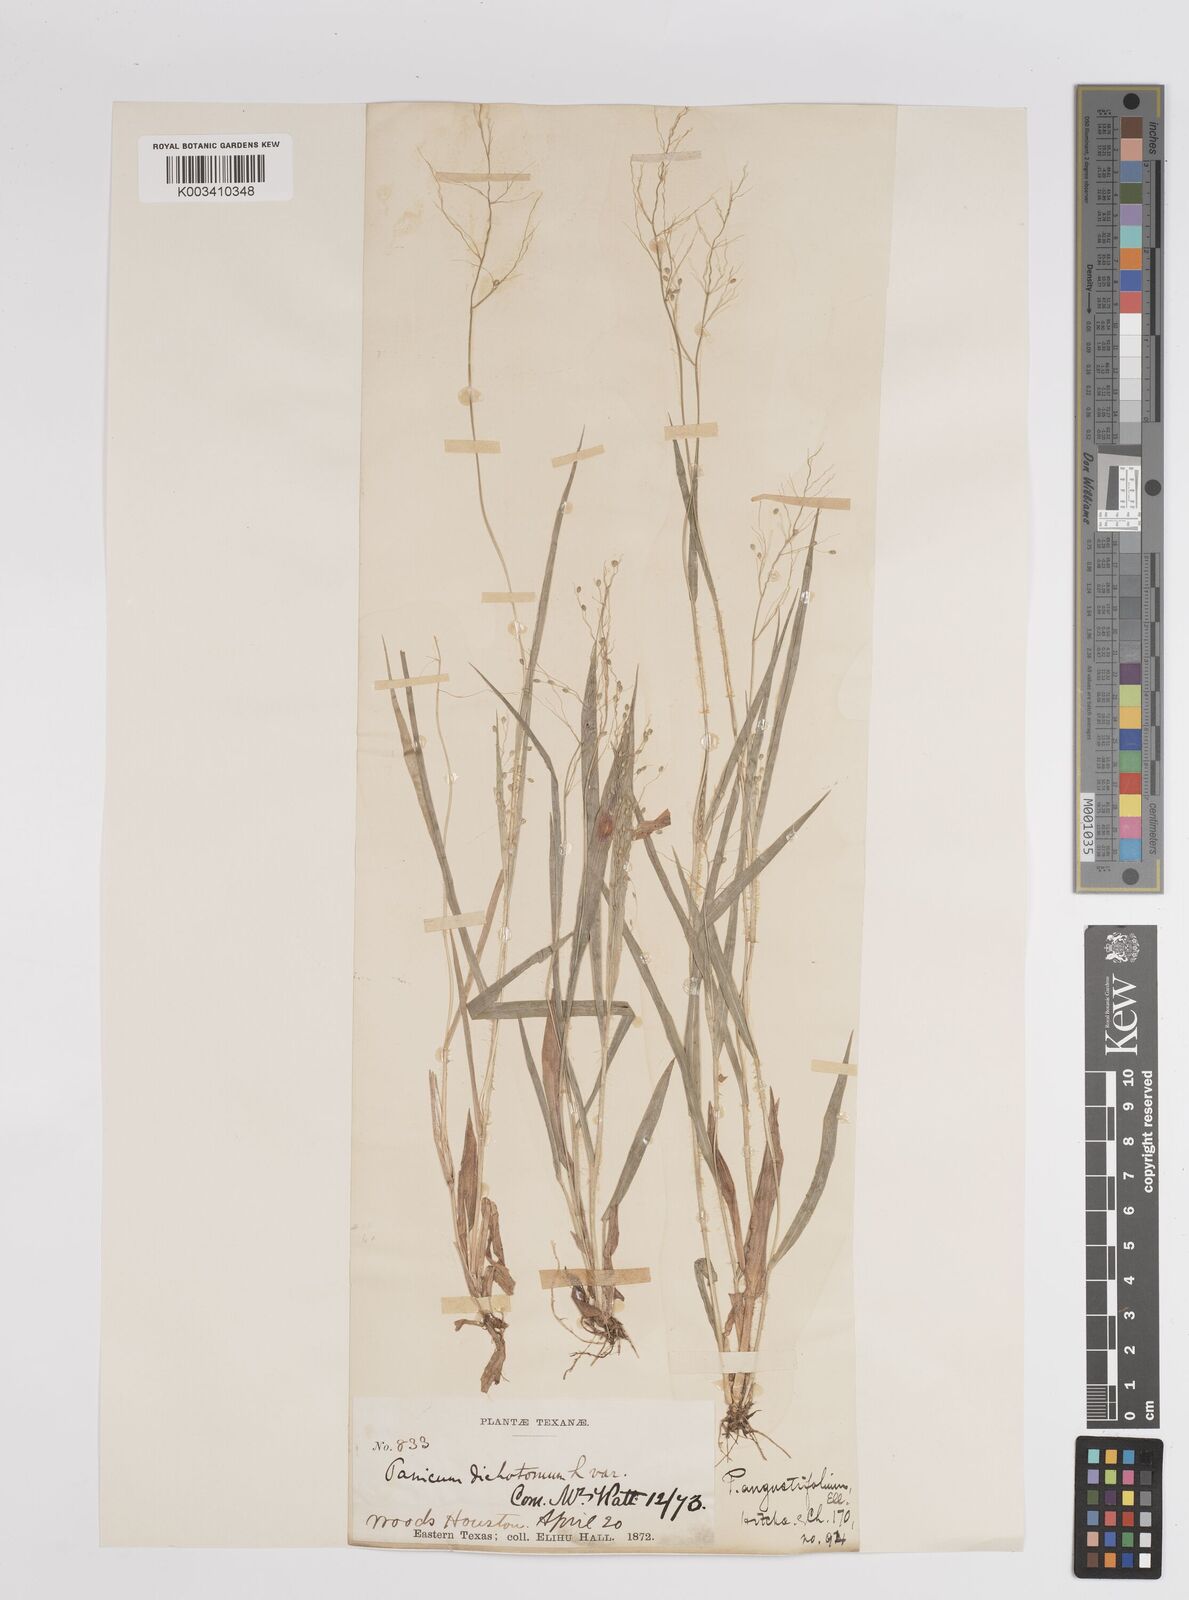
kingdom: Plantae
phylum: Tracheophyta
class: Liliopsida
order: Poales
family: Poaceae
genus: Dichanthelium
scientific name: Dichanthelium angustifolium
